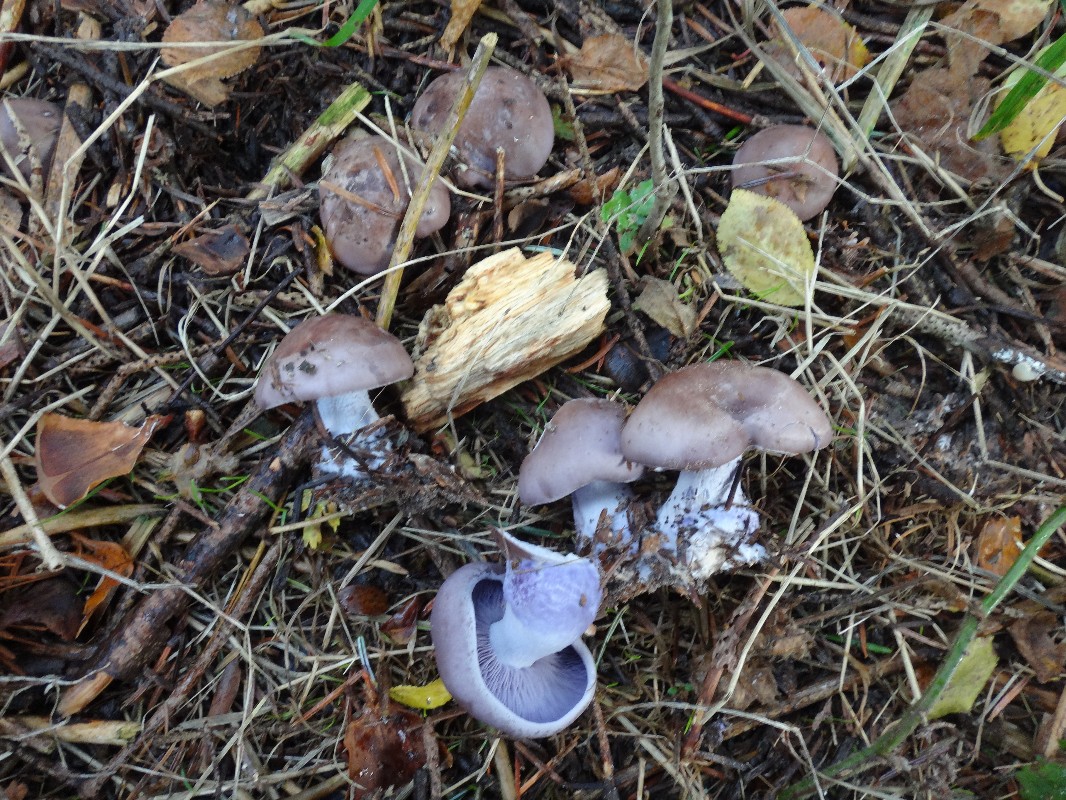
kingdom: Fungi
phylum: Basidiomycota
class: Agaricomycetes
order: Agaricales
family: Tricholomataceae
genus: Lepista
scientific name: Lepista nuda
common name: violet hekseringshat
